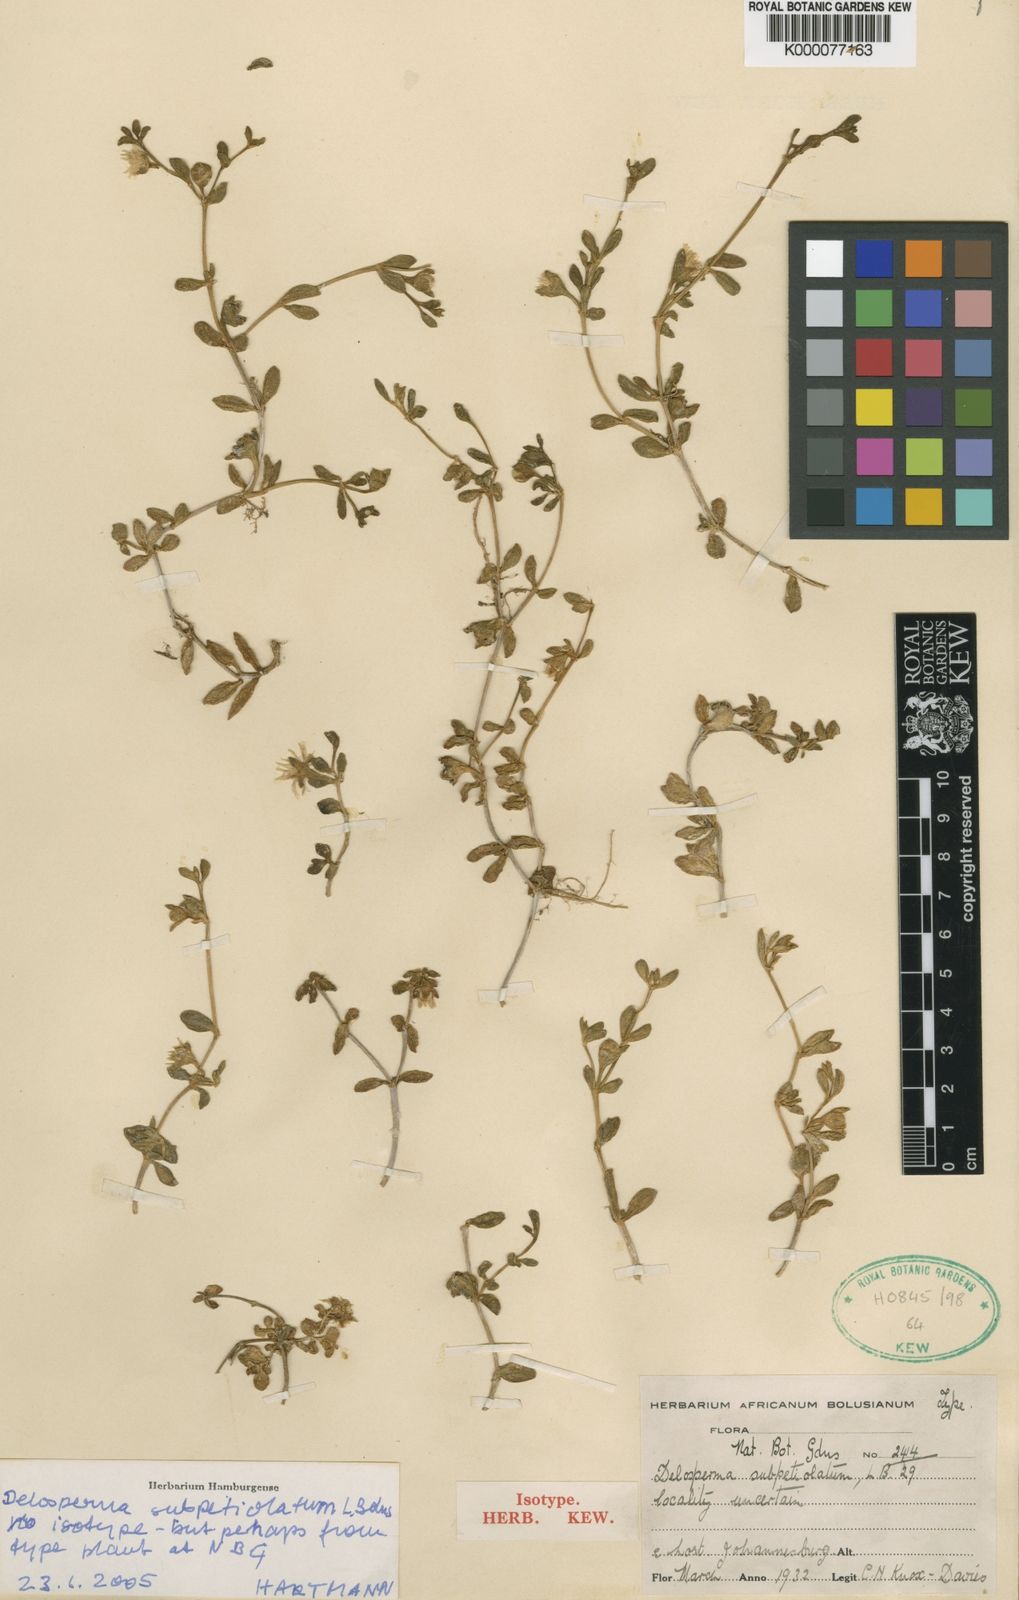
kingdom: Plantae
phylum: Tracheophyta
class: Magnoliopsida
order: Caryophyllales
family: Aizoaceae
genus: Delosperma
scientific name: Delosperma subpetiolatum
